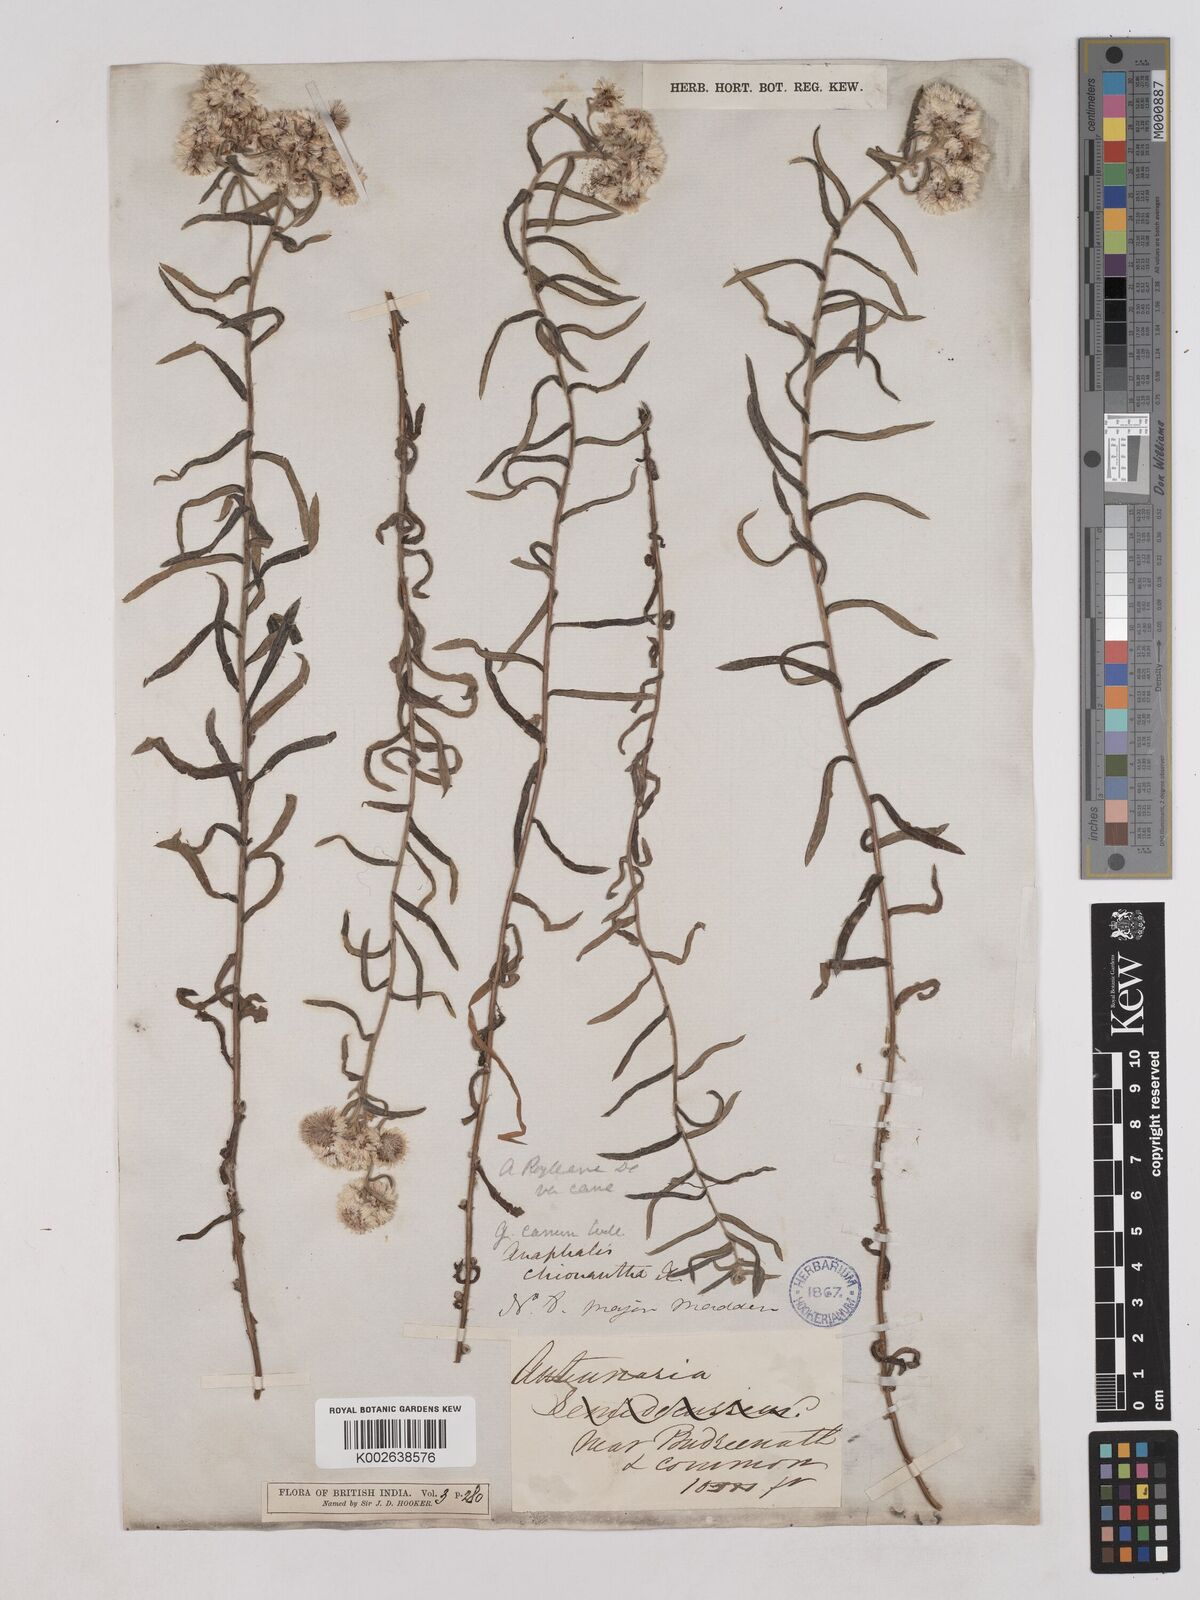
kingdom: Plantae
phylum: Tracheophyta
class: Magnoliopsida
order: Asterales
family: Asteraceae
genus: Anaphalis
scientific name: Anaphalis royleana
